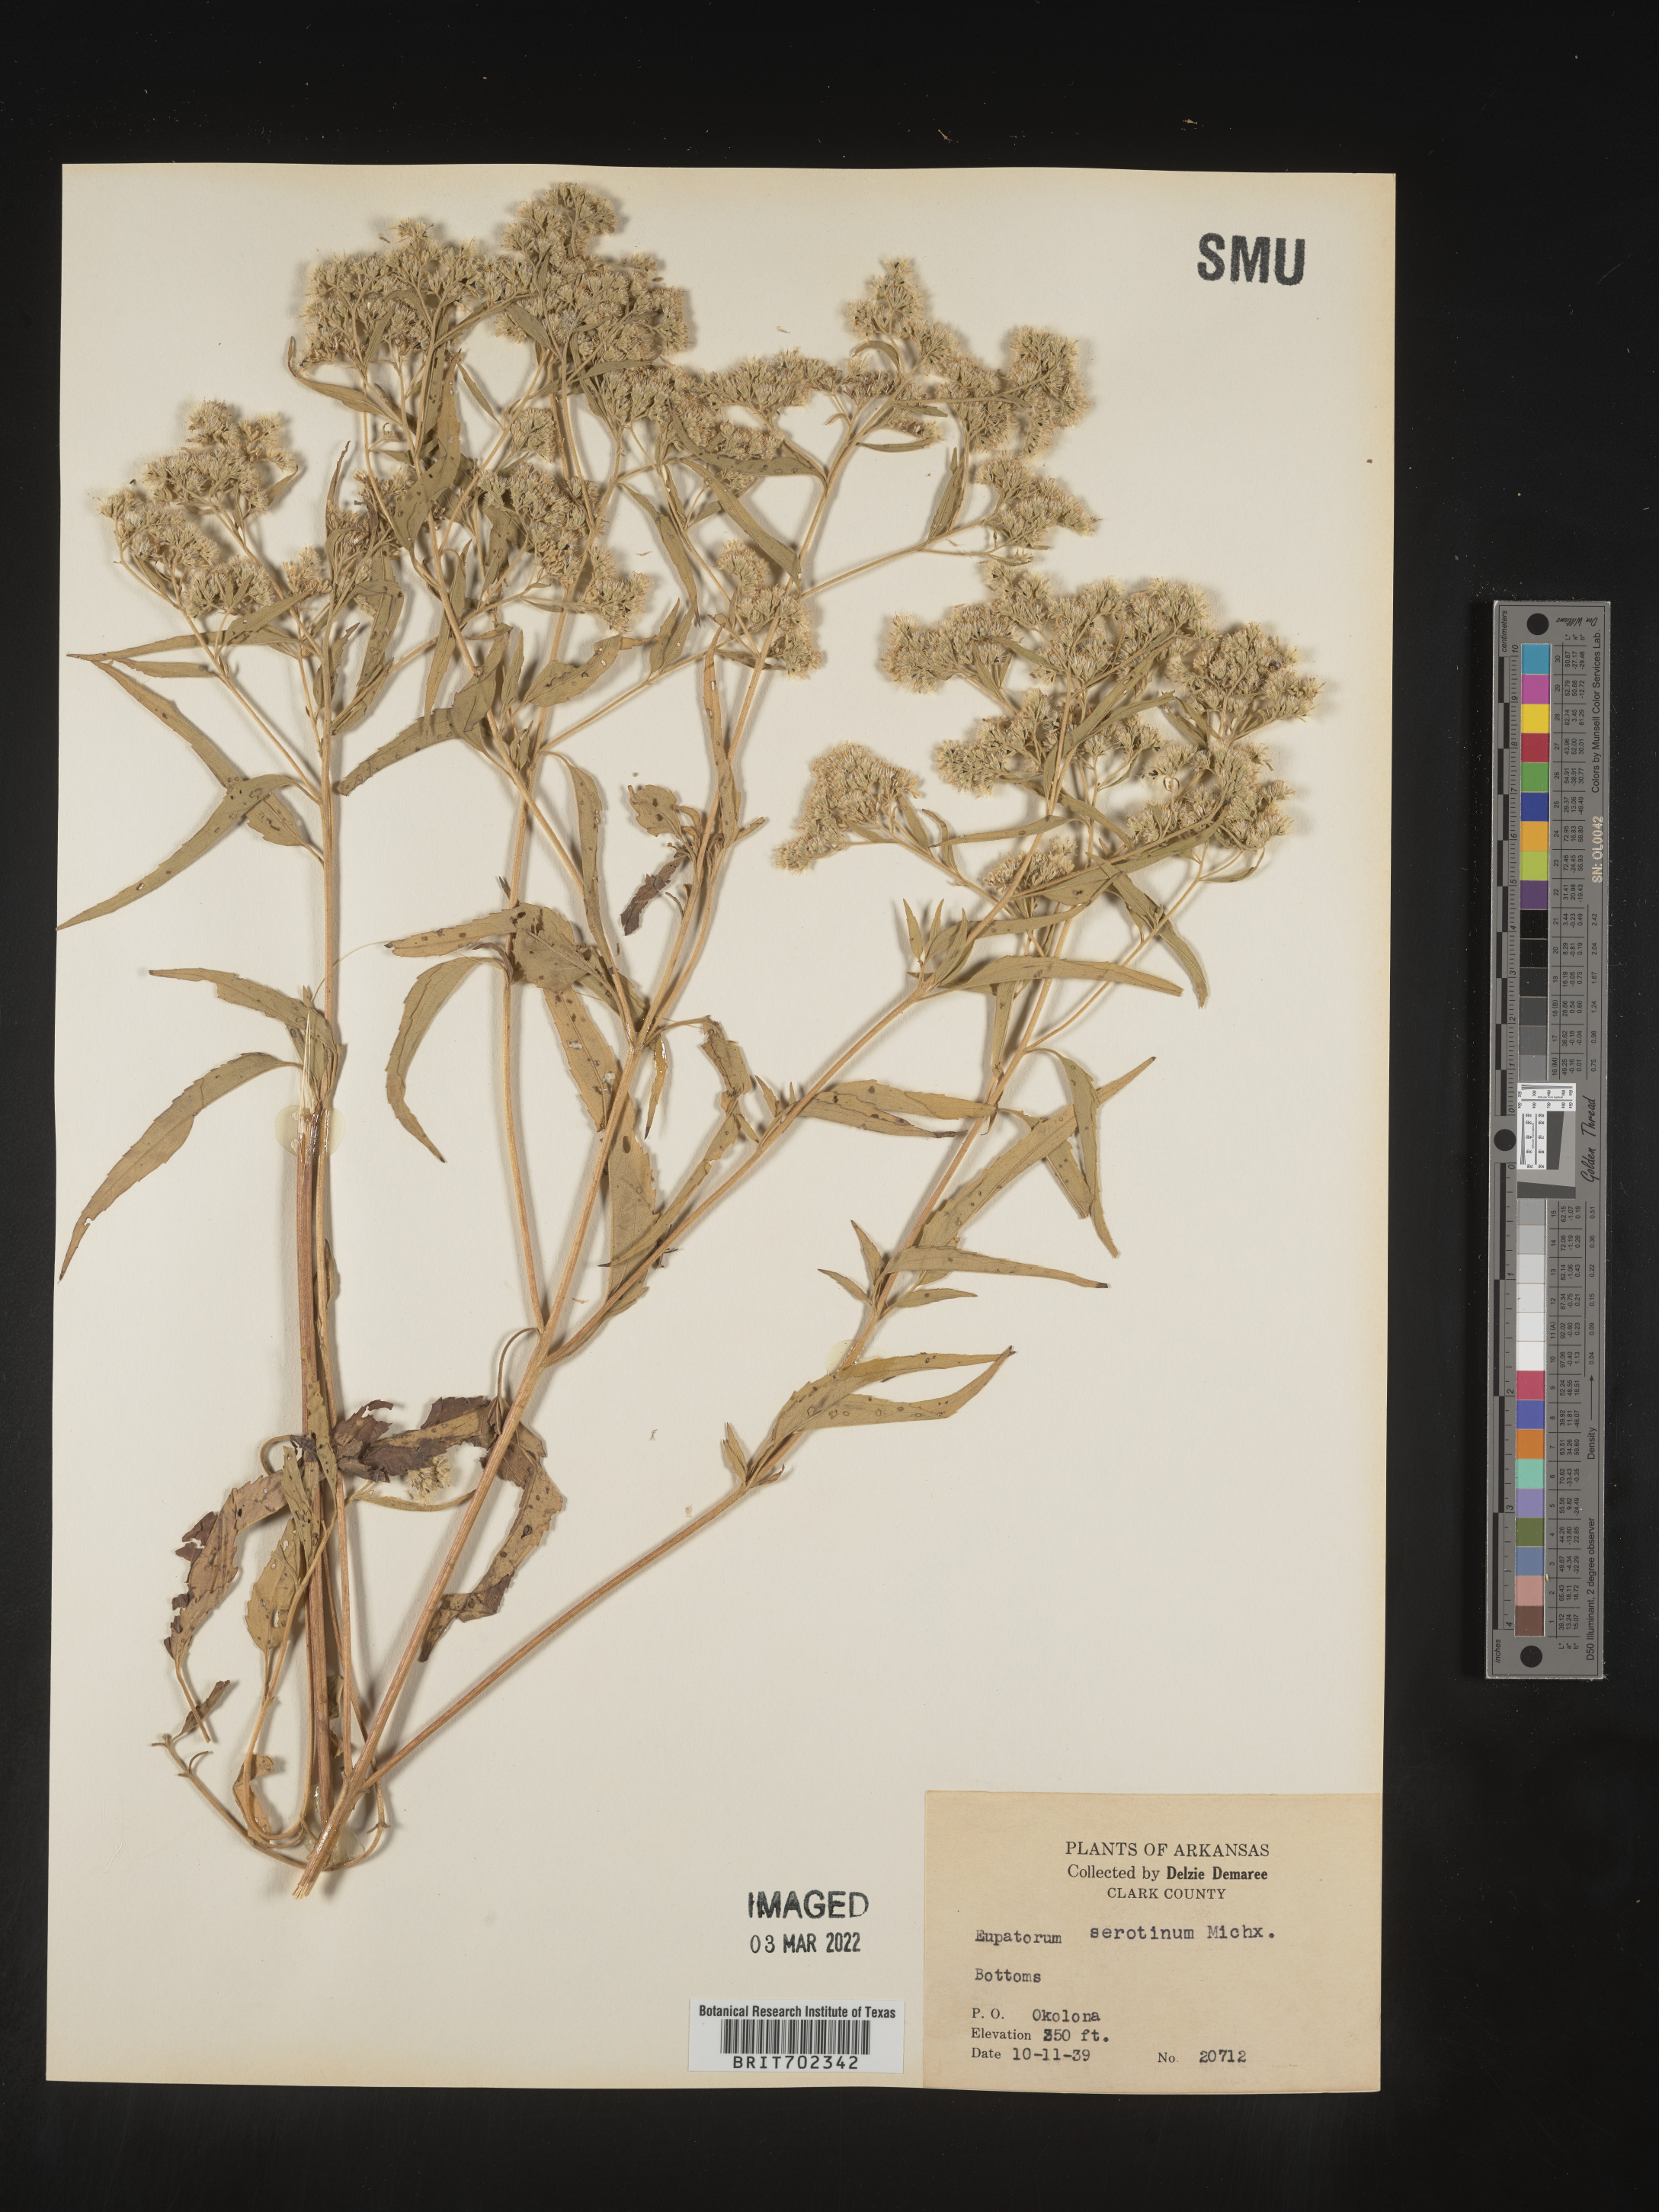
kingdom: Plantae
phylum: Tracheophyta
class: Magnoliopsida
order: Asterales
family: Asteraceae
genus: Eupatorium
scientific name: Eupatorium serotinum
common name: Late boneset
